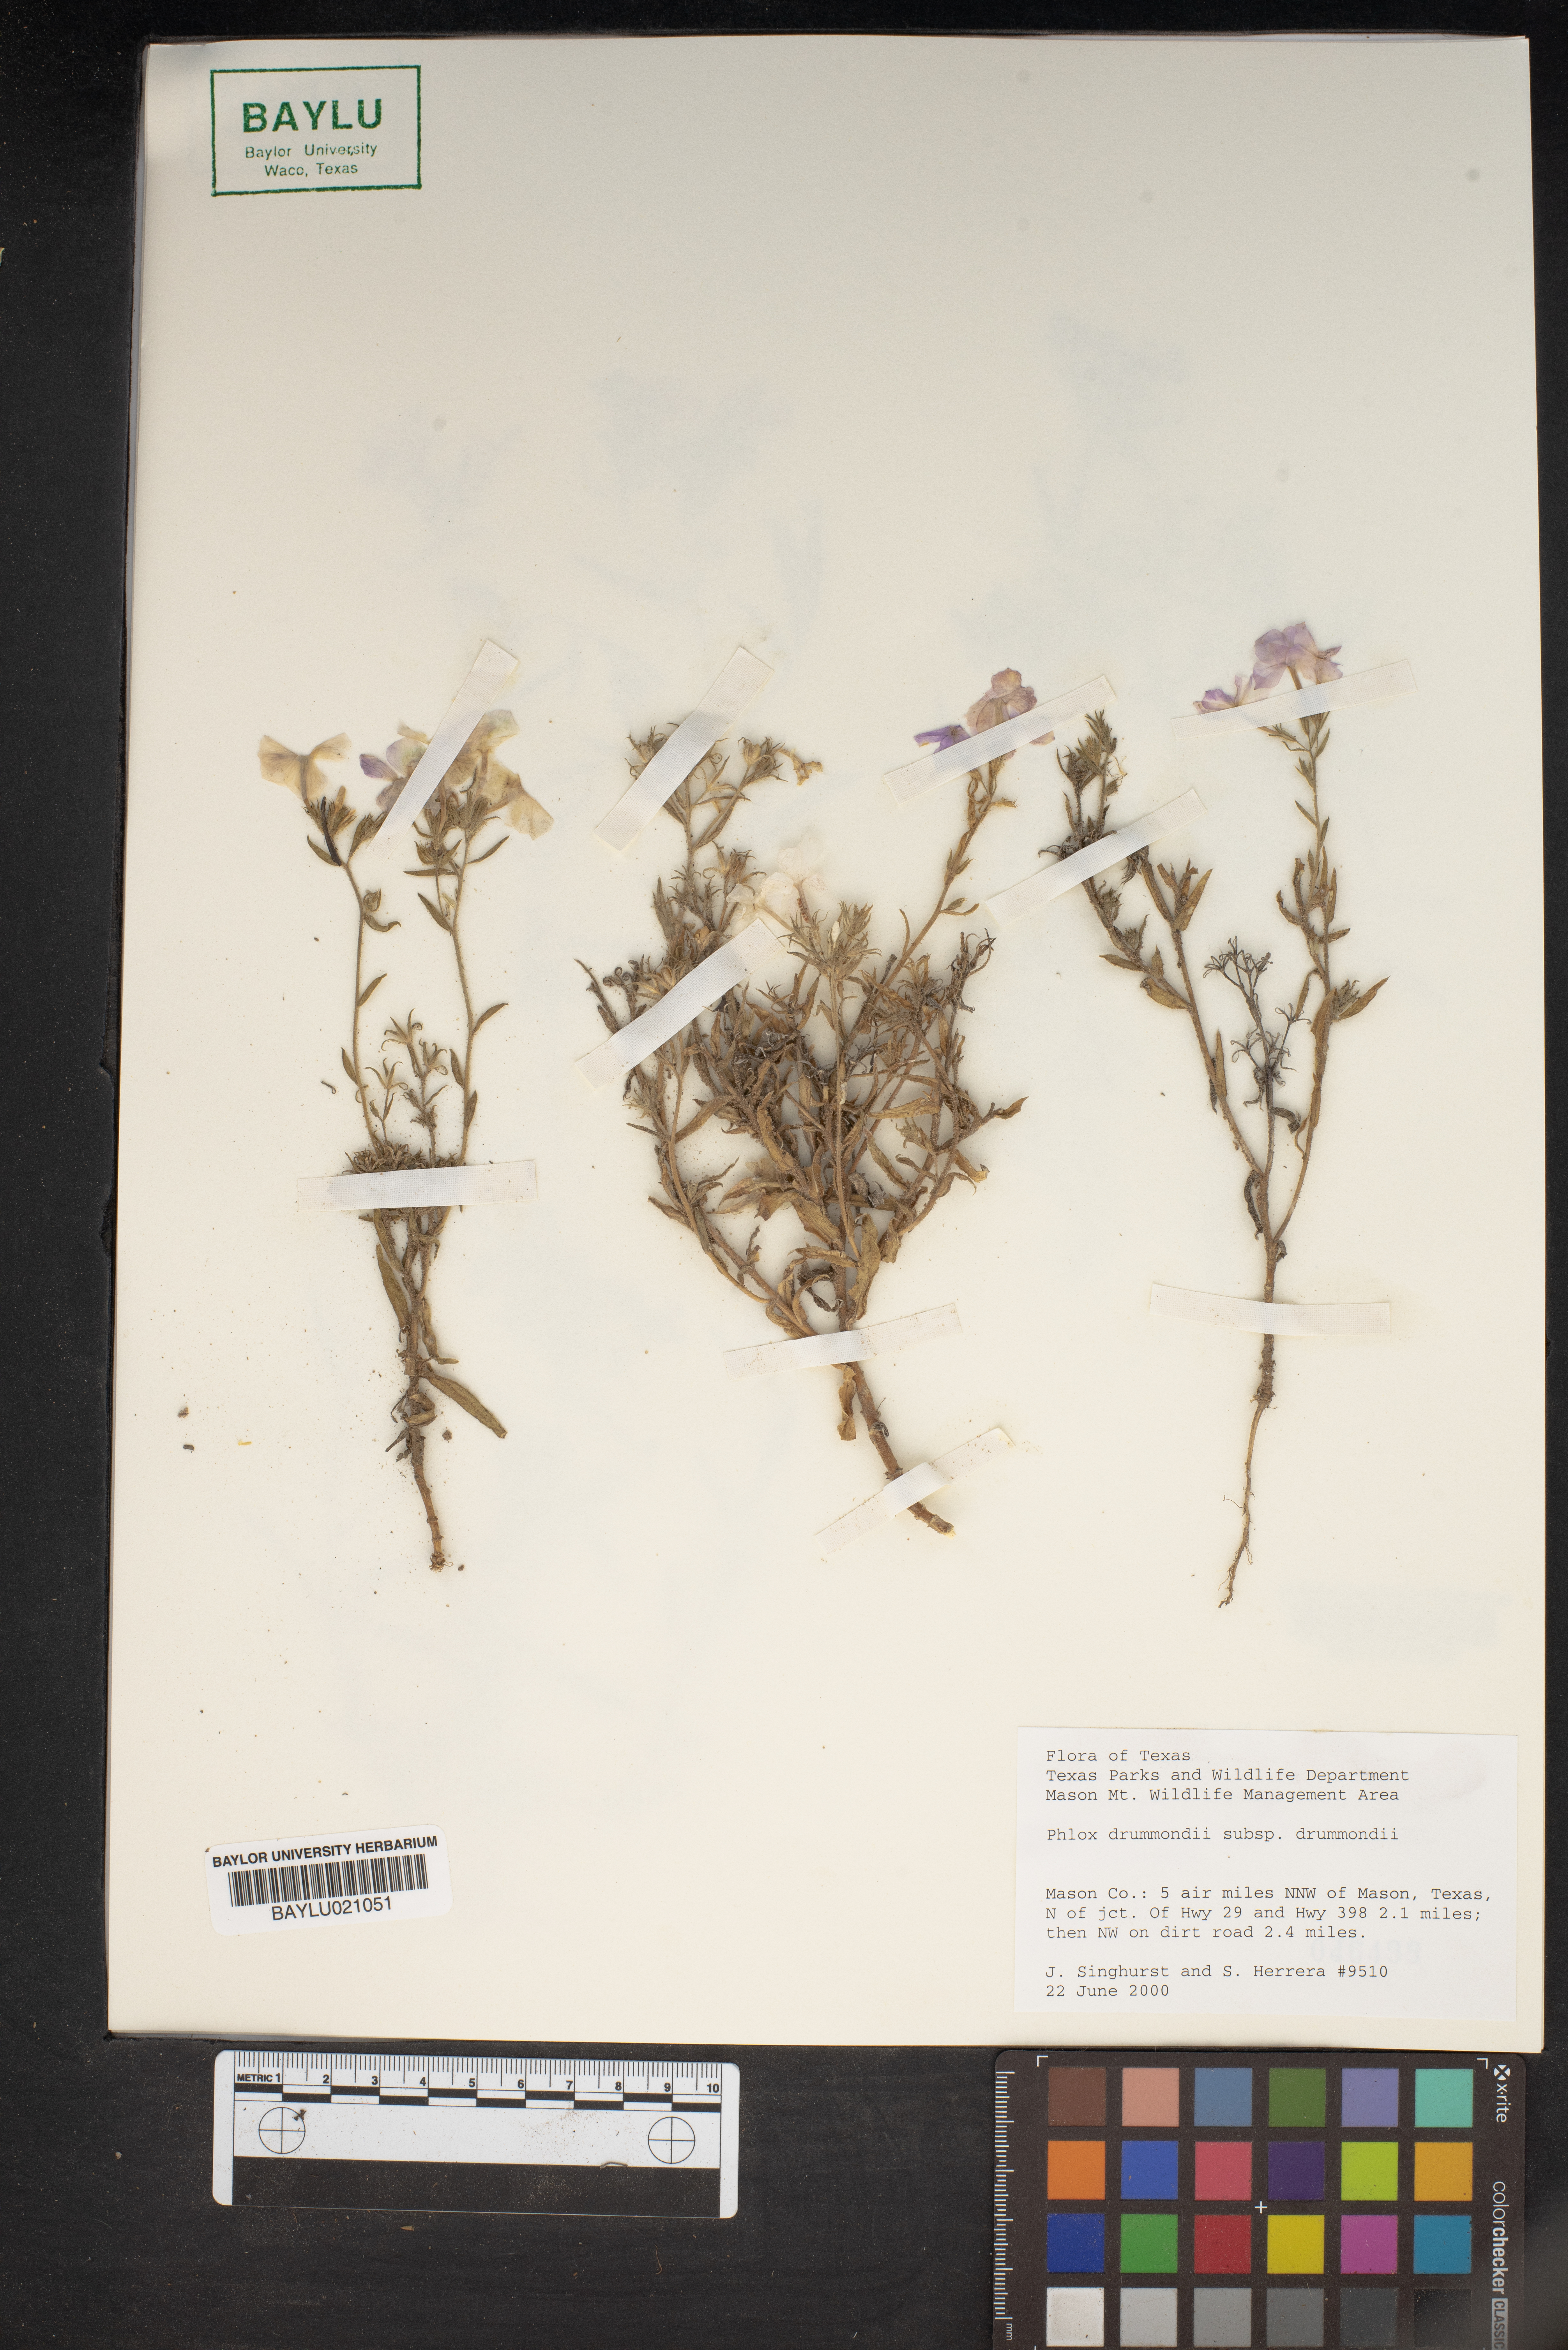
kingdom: Plantae
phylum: Tracheophyta
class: Magnoliopsida
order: Ericales
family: Polemoniaceae
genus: Phlox
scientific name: Phlox drummondii
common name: Drummond's phlox
